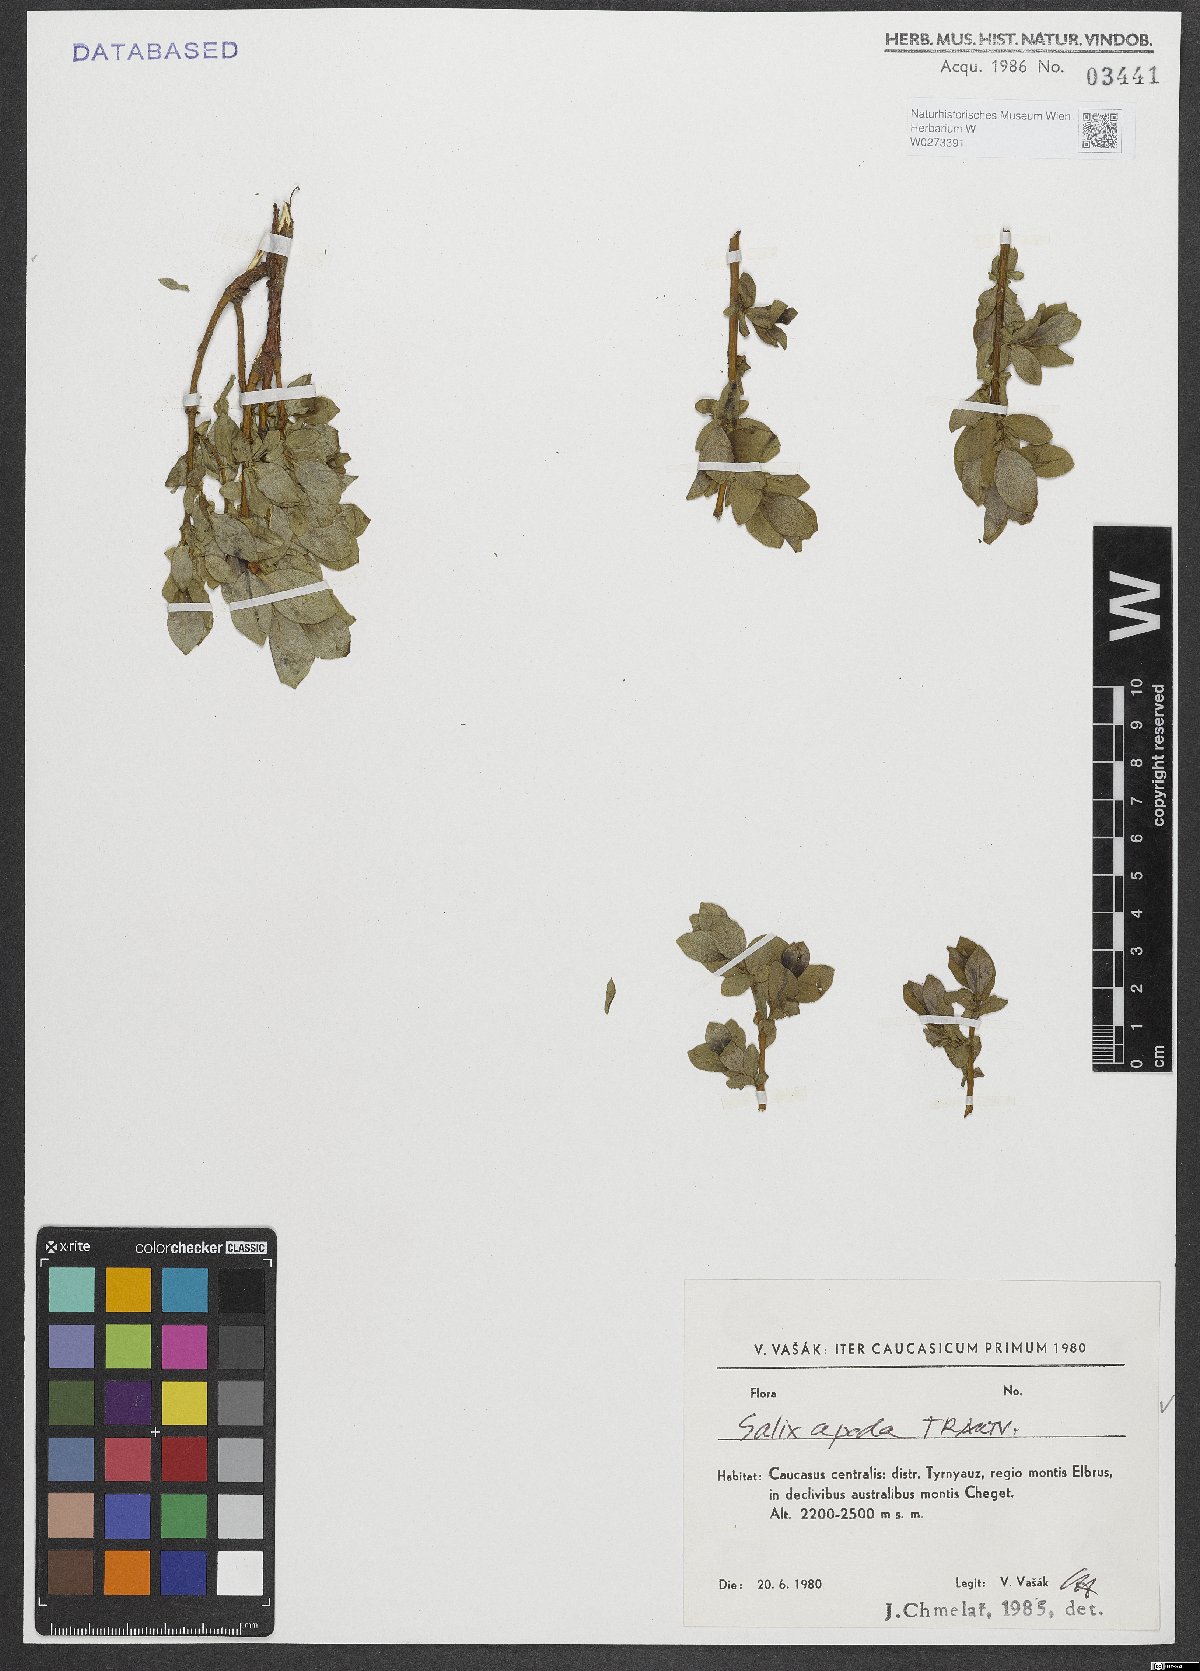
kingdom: Plantae
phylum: Tracheophyta
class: Magnoliopsida
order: Malpighiales
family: Salicaceae
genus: Salix
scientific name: Salix apoda
